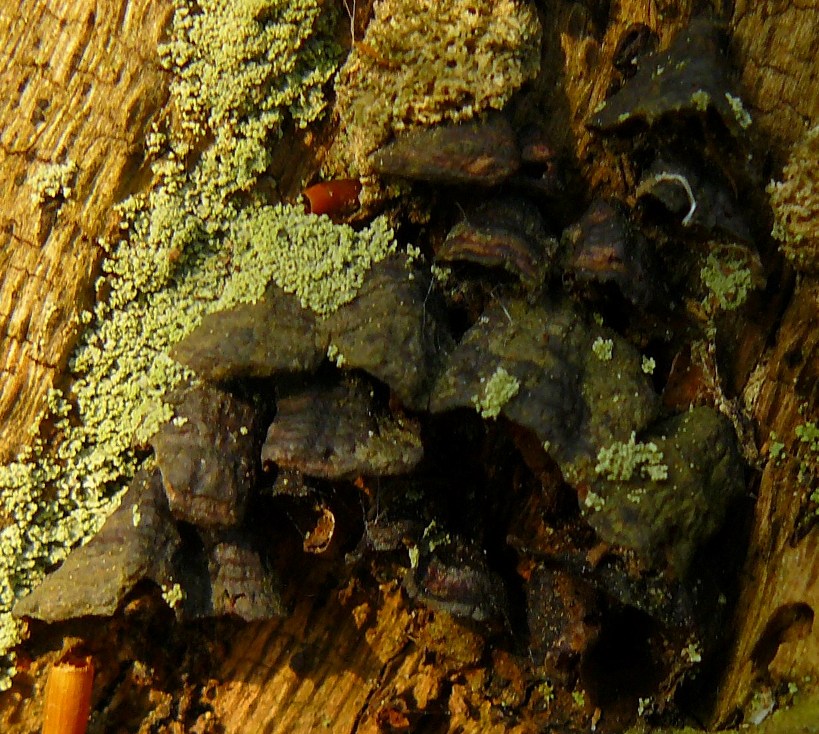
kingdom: Fungi
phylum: Basidiomycota
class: Agaricomycetes
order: Hymenochaetales
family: Hymenochaetaceae
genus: Hymenochaete
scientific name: Hymenochaete rubiginosa
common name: stiv ruslædersvamp
